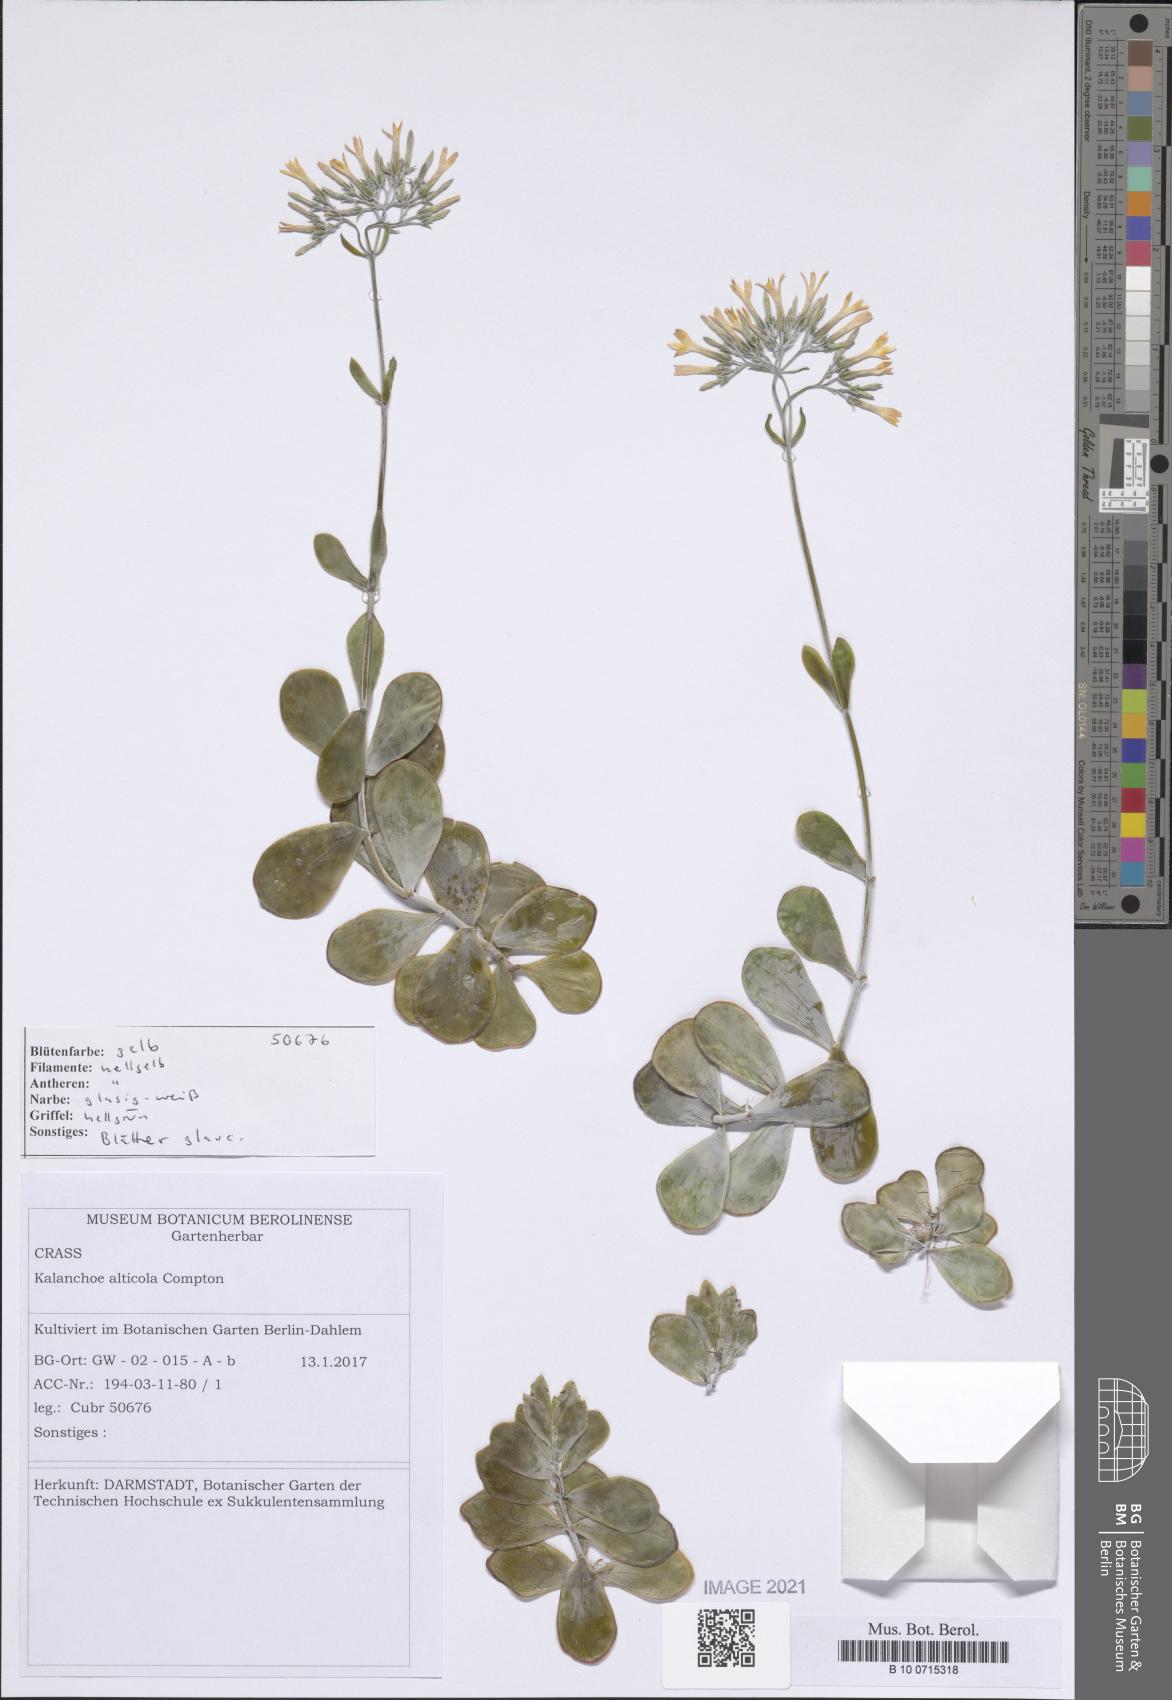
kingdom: Plantae
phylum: Tracheophyta
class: Magnoliopsida
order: Saxifragales
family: Crassulaceae
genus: Kalanchoe
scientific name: Kalanchoe alticola
